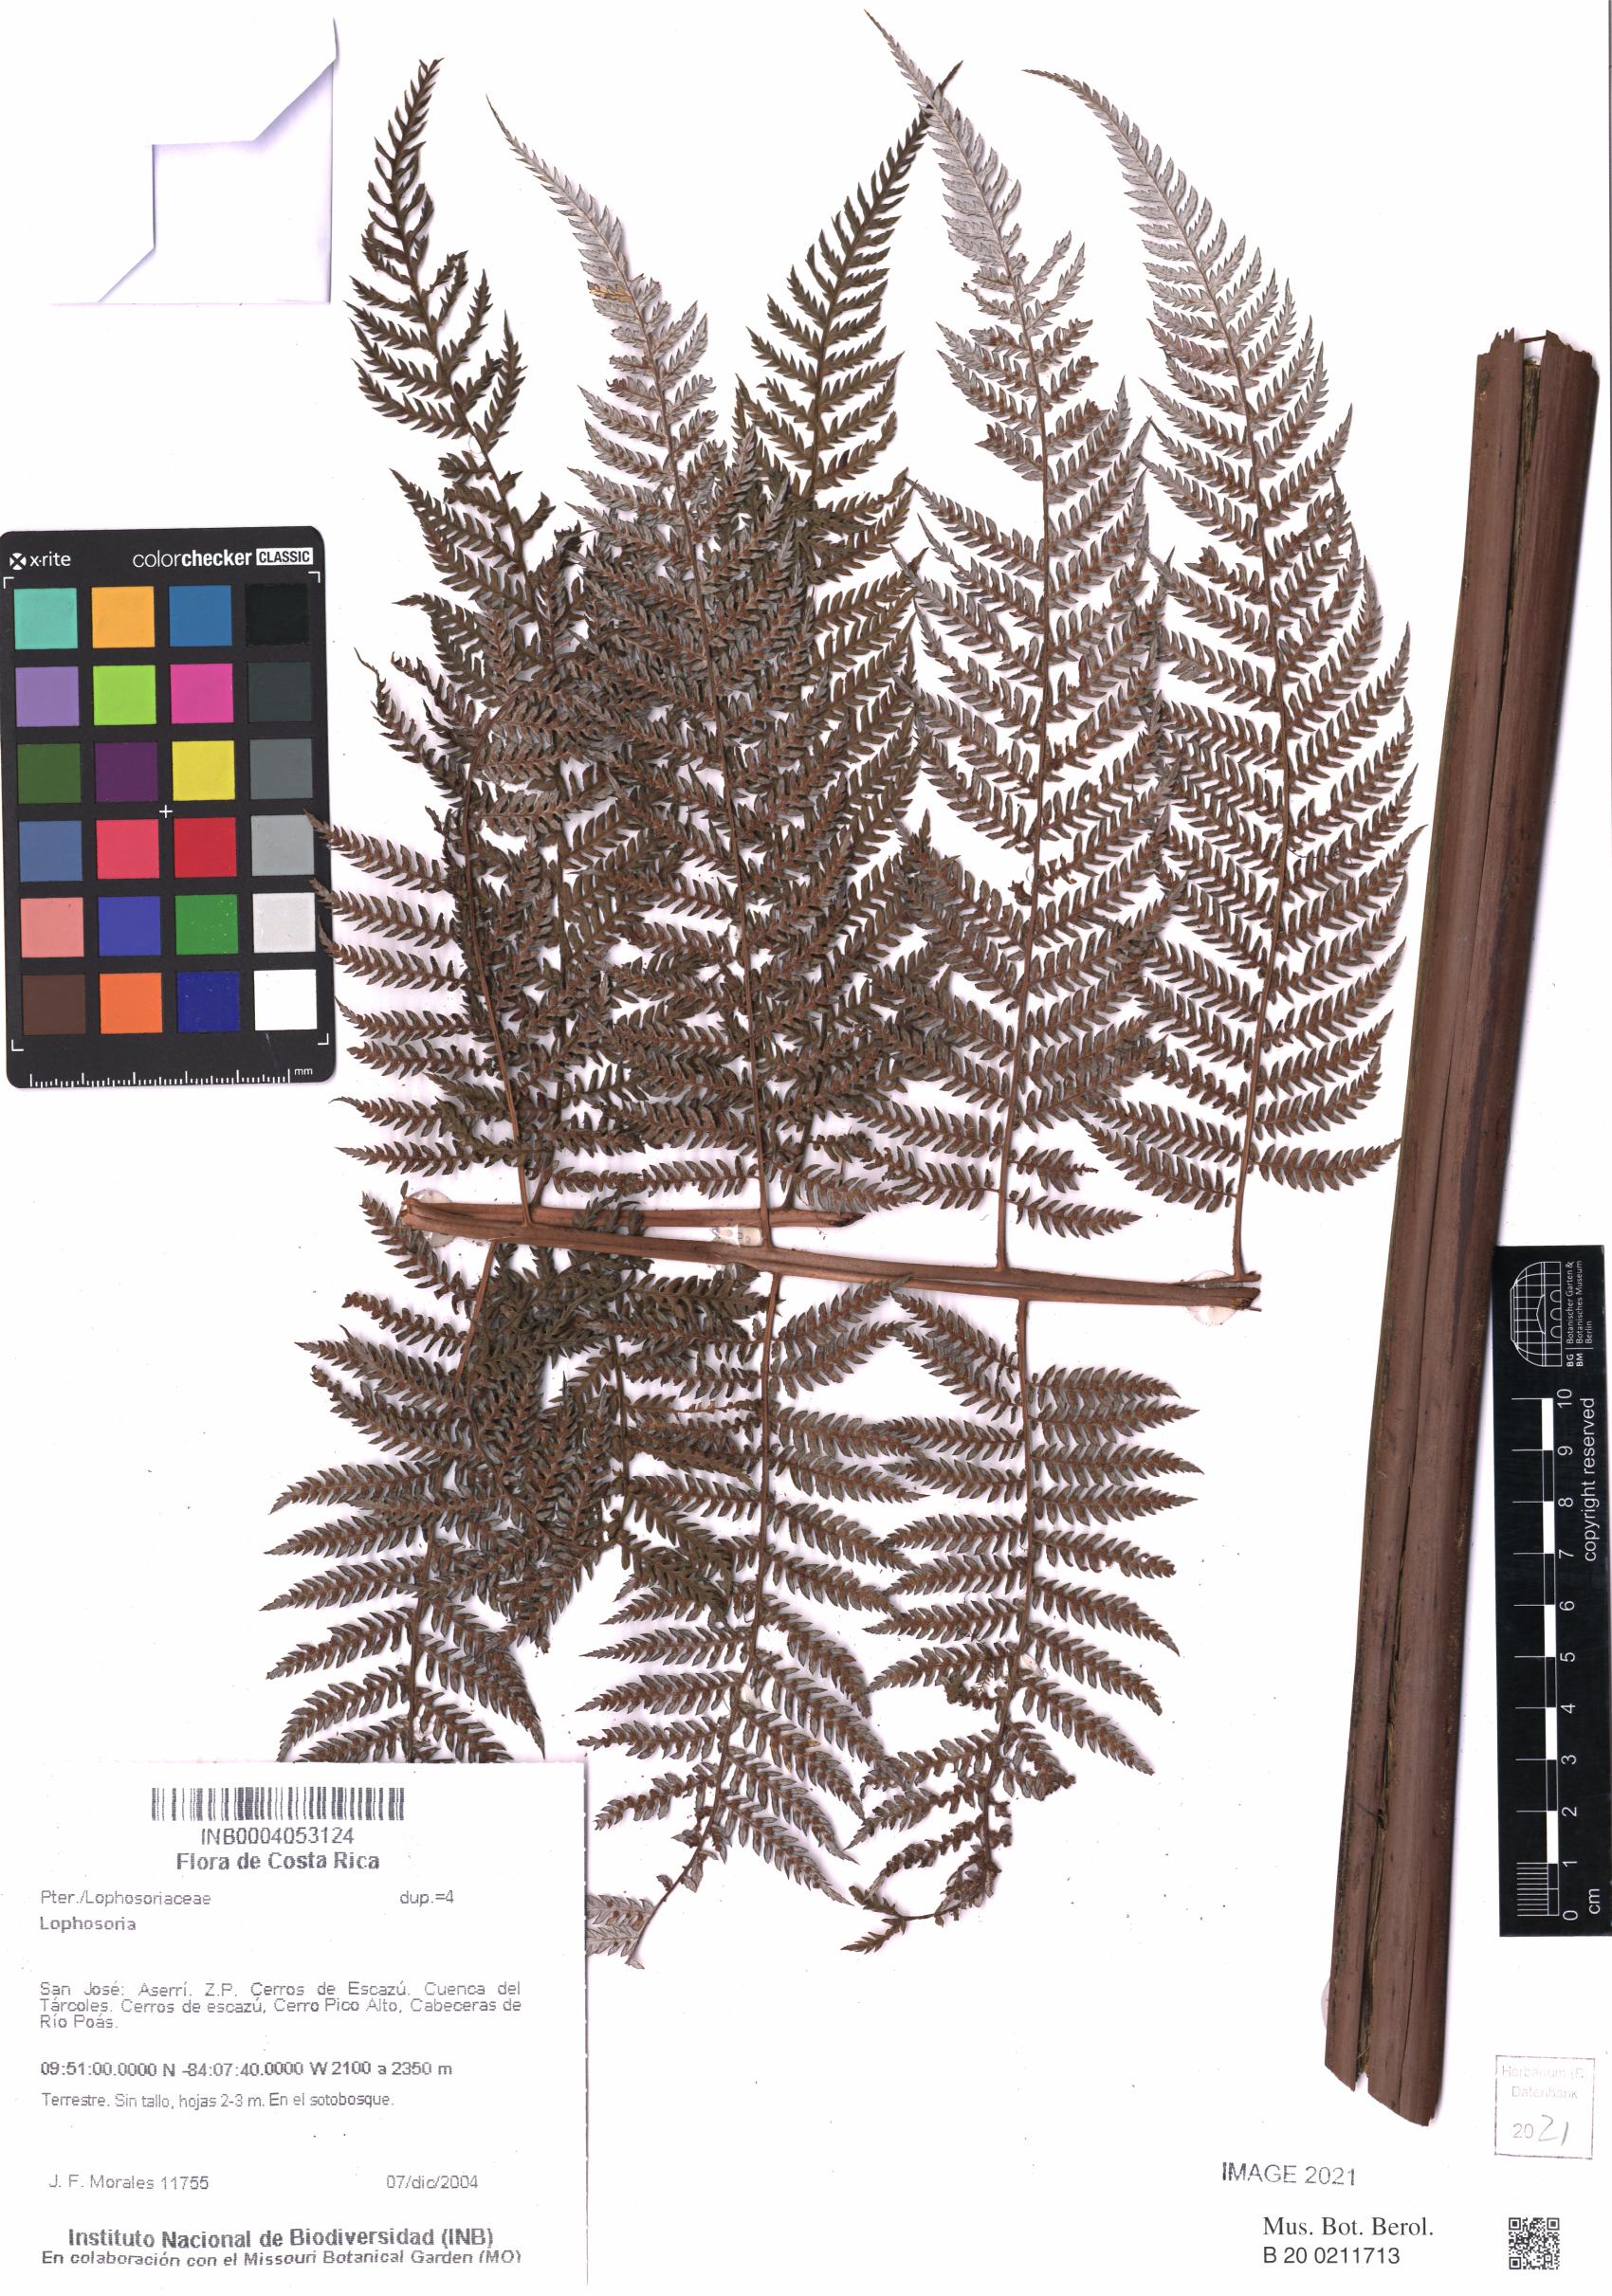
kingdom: Plantae
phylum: Tracheophyta
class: Polypodiopsida
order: Cyatheales
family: Dicksoniaceae
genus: Lophosoria
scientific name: Lophosoria
